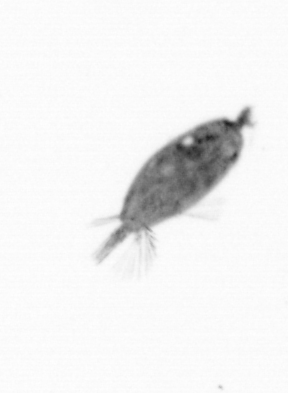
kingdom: Animalia
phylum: Arthropoda
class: Maxillopoda
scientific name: Maxillopoda
